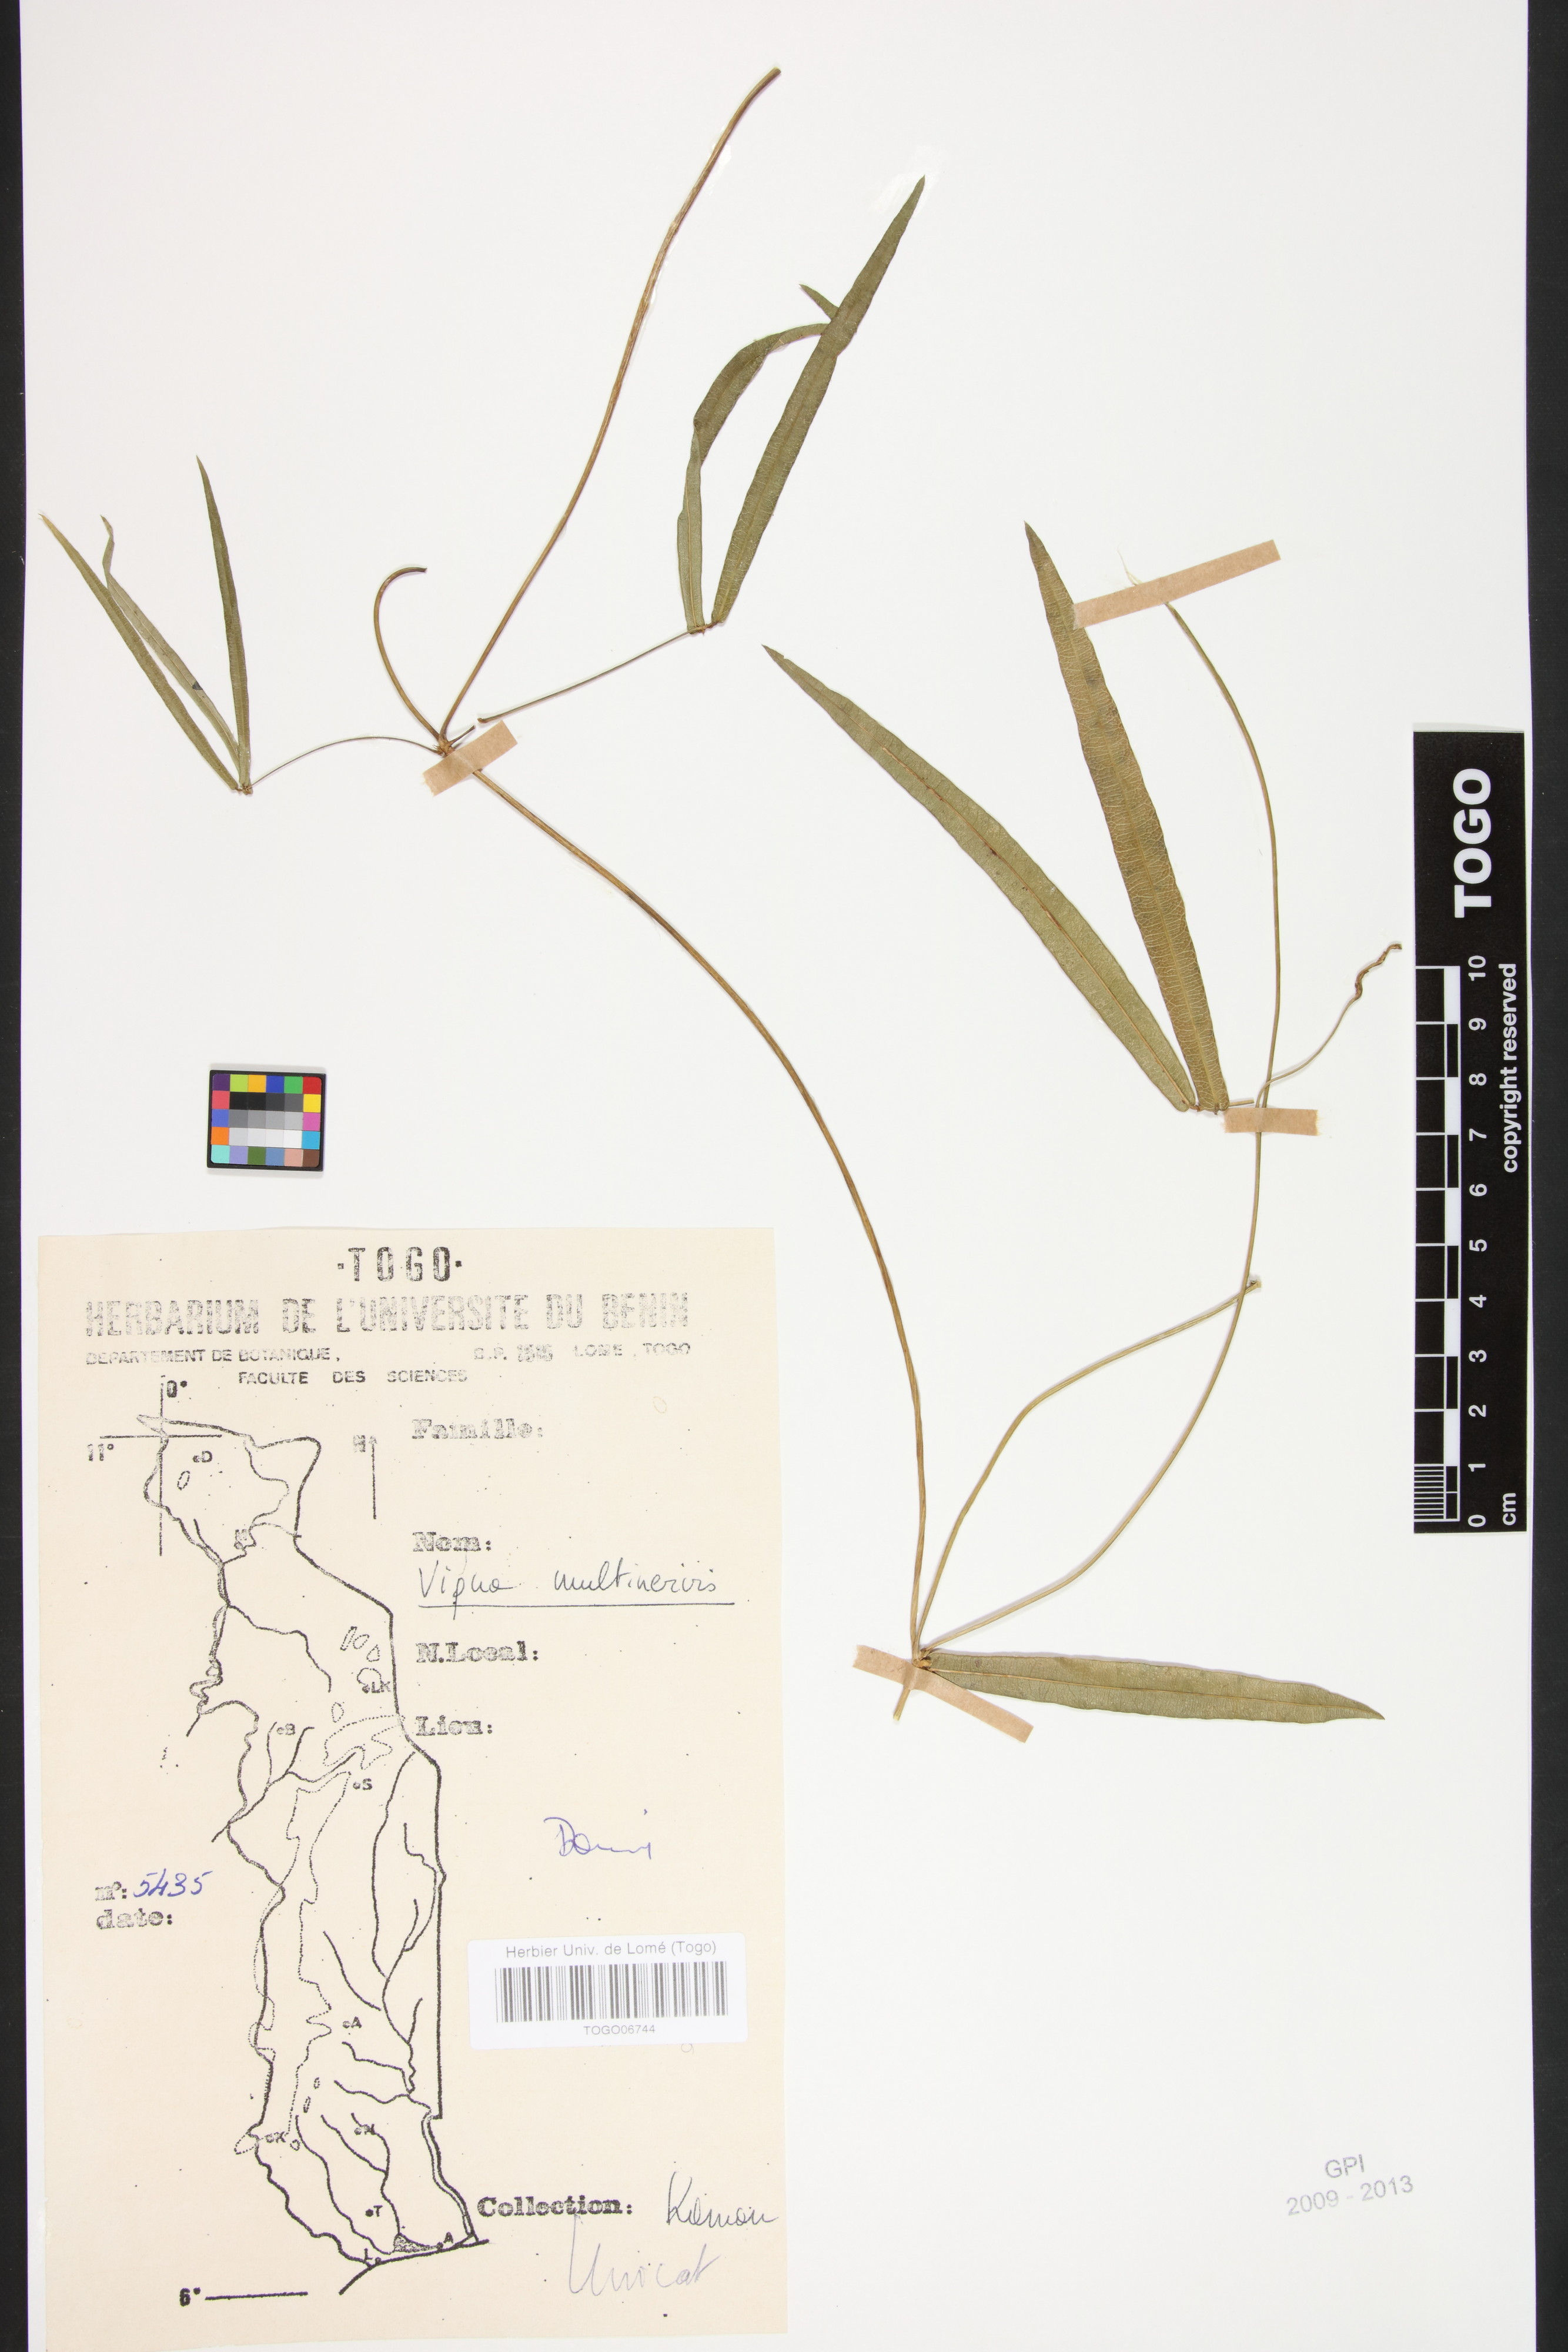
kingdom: Plantae
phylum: Tracheophyta
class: Magnoliopsida
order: Fabales
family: Fabaceae
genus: Vigna
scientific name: Vigna multinervis
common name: Fula-pulaar
